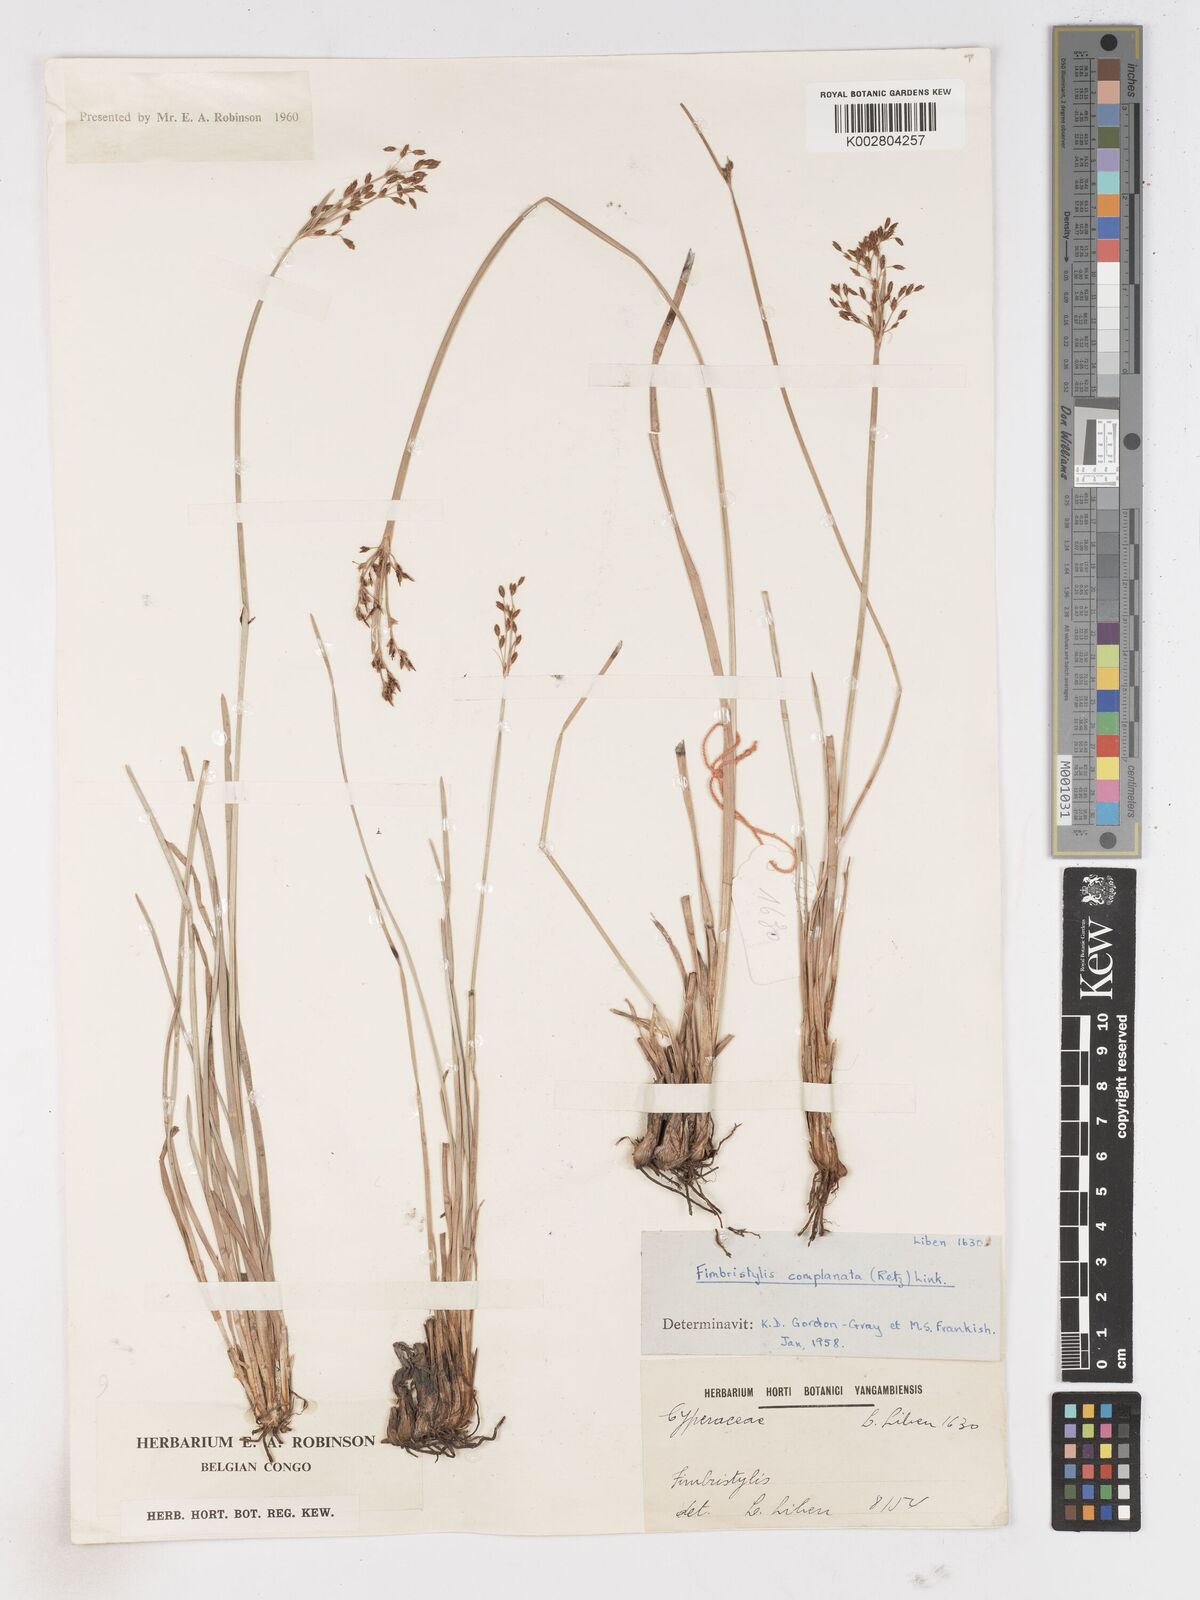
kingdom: Plantae
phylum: Tracheophyta
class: Liliopsida
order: Poales
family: Cyperaceae
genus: Fimbristylis
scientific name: Fimbristylis complanata
